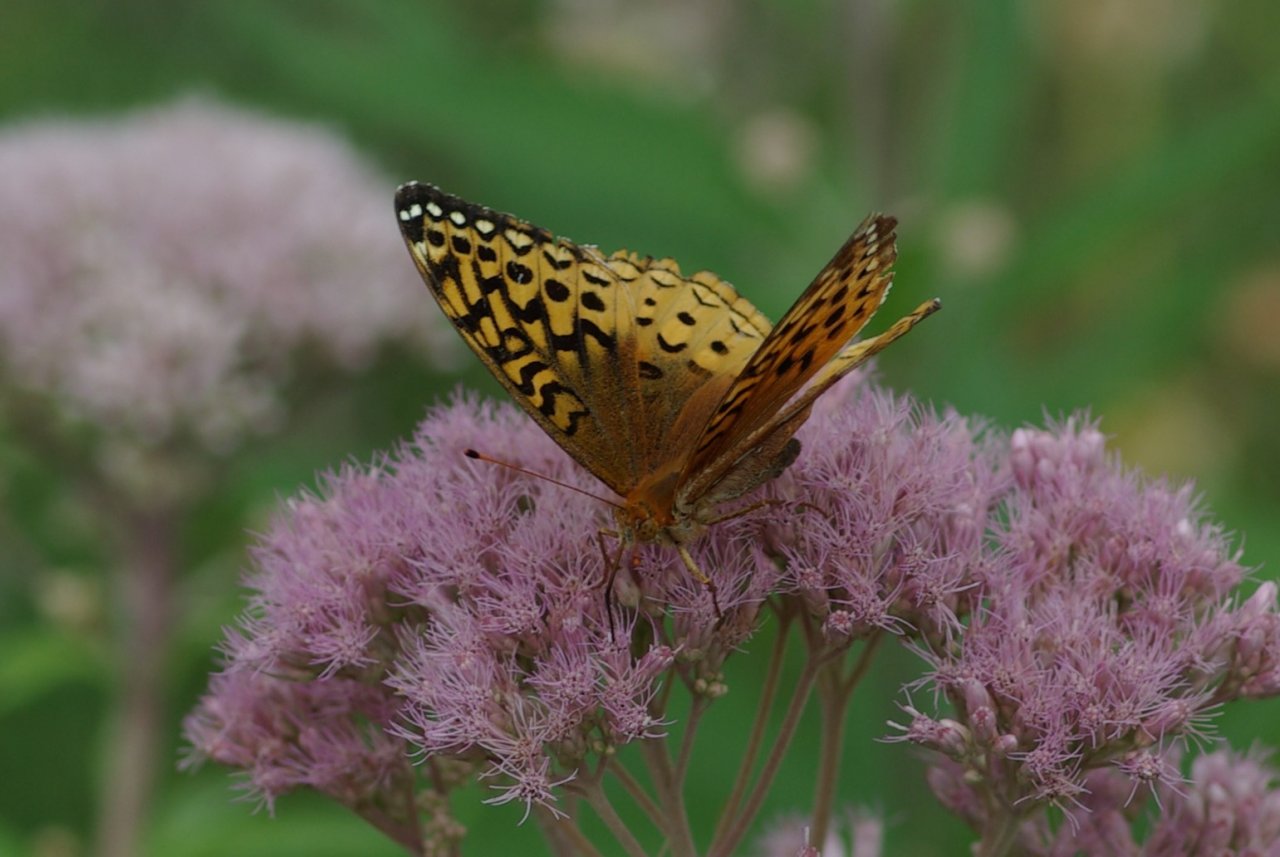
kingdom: Animalia
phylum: Arthropoda
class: Insecta
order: Lepidoptera
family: Nymphalidae
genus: Speyeria
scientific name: Speyeria cybele
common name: Great Spangled Fritillary
